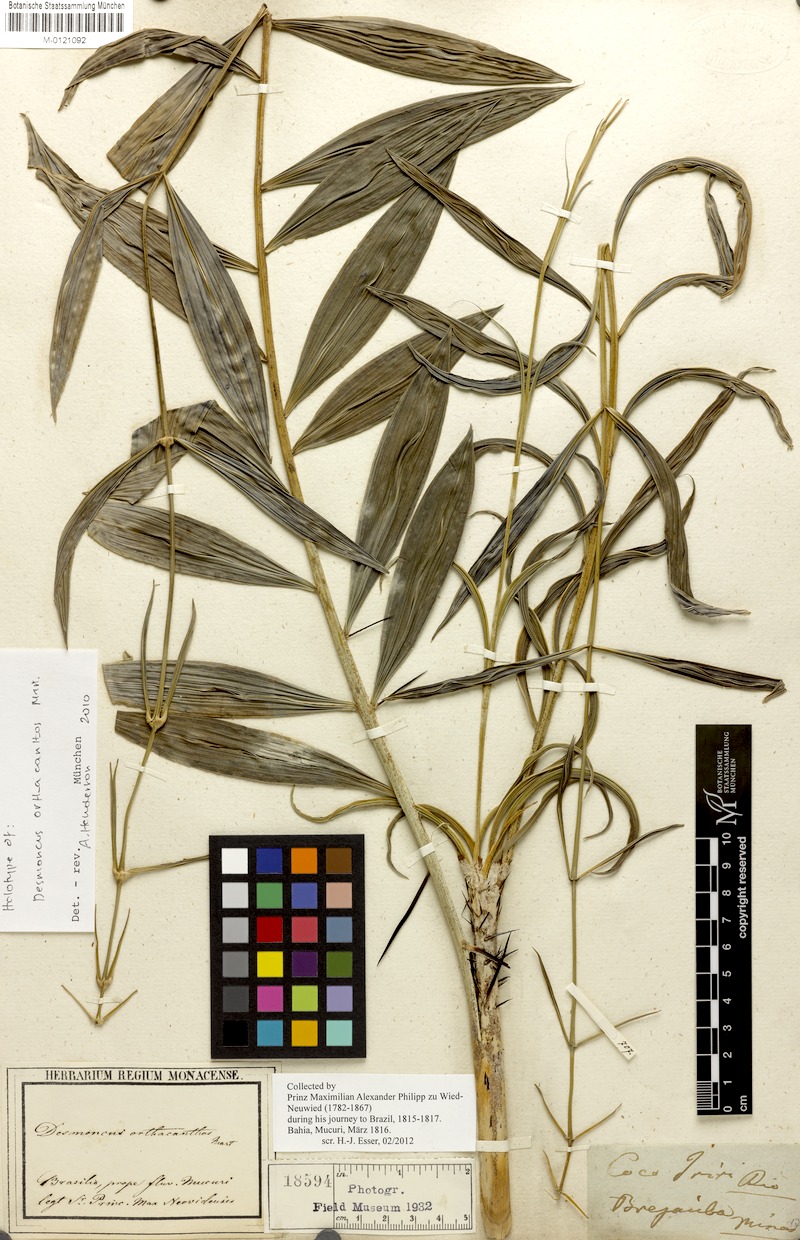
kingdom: Plantae
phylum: Tracheophyta
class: Liliopsida
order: Arecales
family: Arecaceae
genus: Desmoncus
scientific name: Desmoncus orthacanthos
